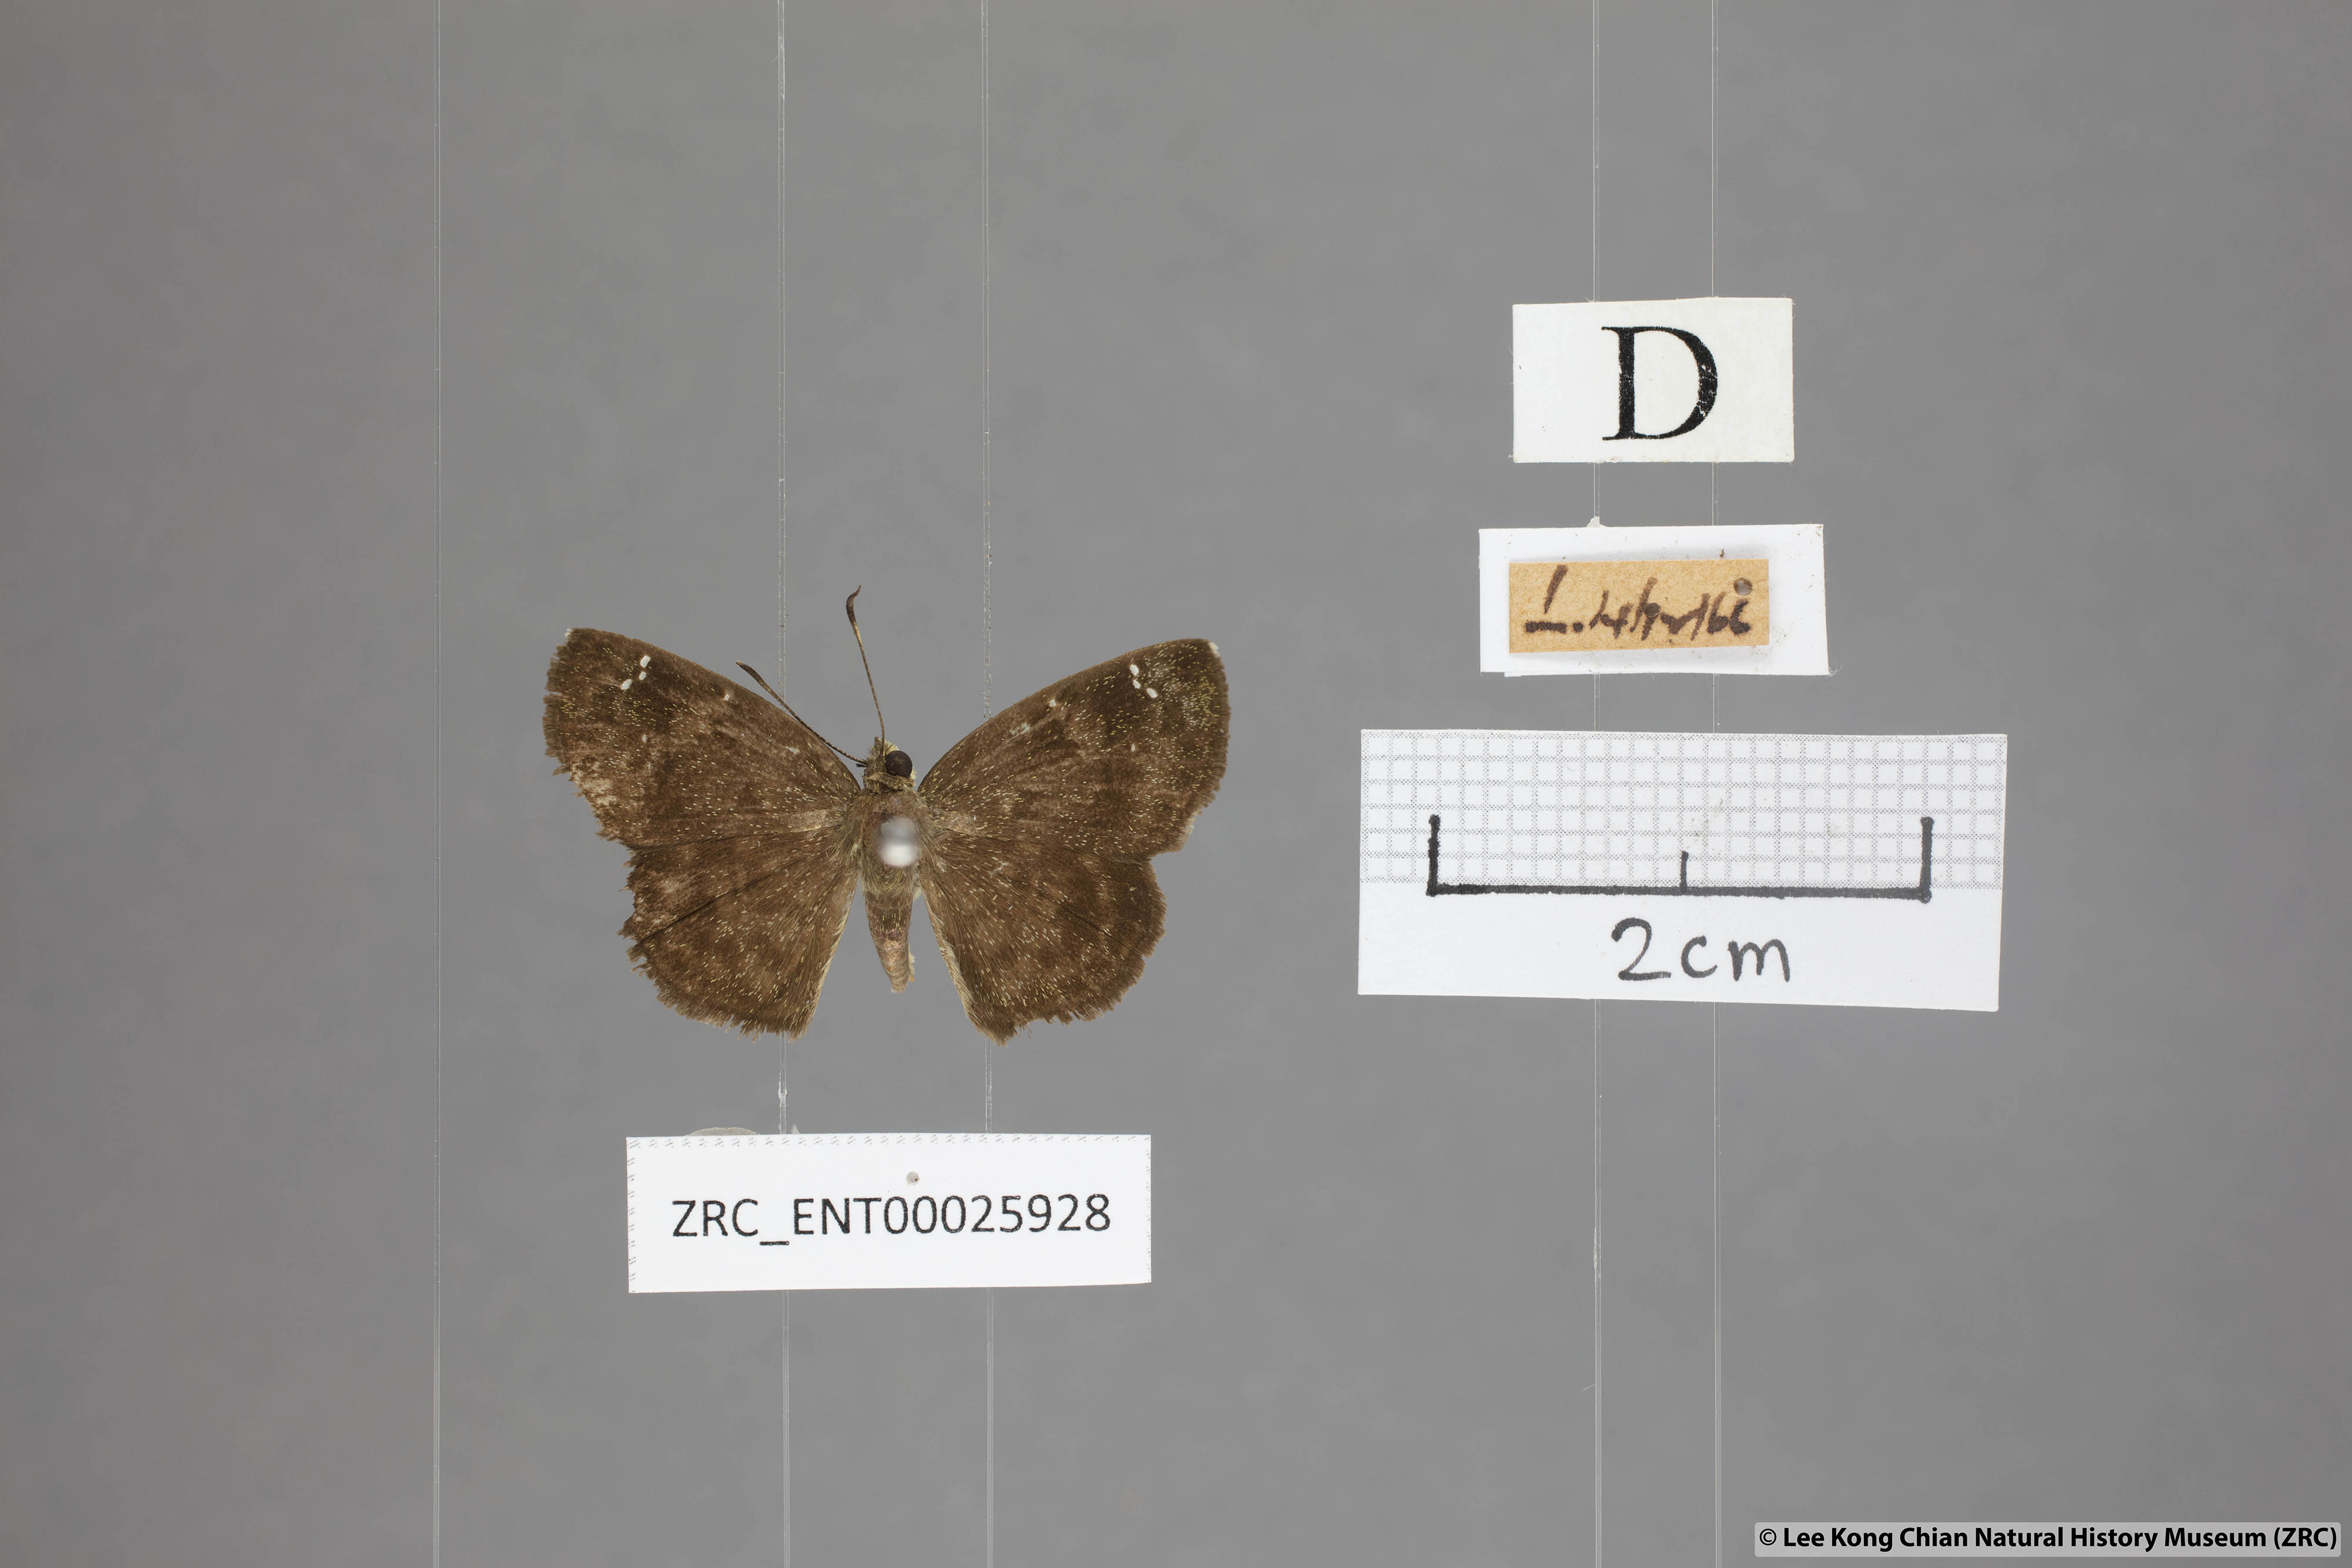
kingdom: Animalia
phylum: Arthropoda
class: Insecta
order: Lepidoptera
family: Hesperiidae
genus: Sarangesa
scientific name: Sarangesa dasahara
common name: Common small flat
